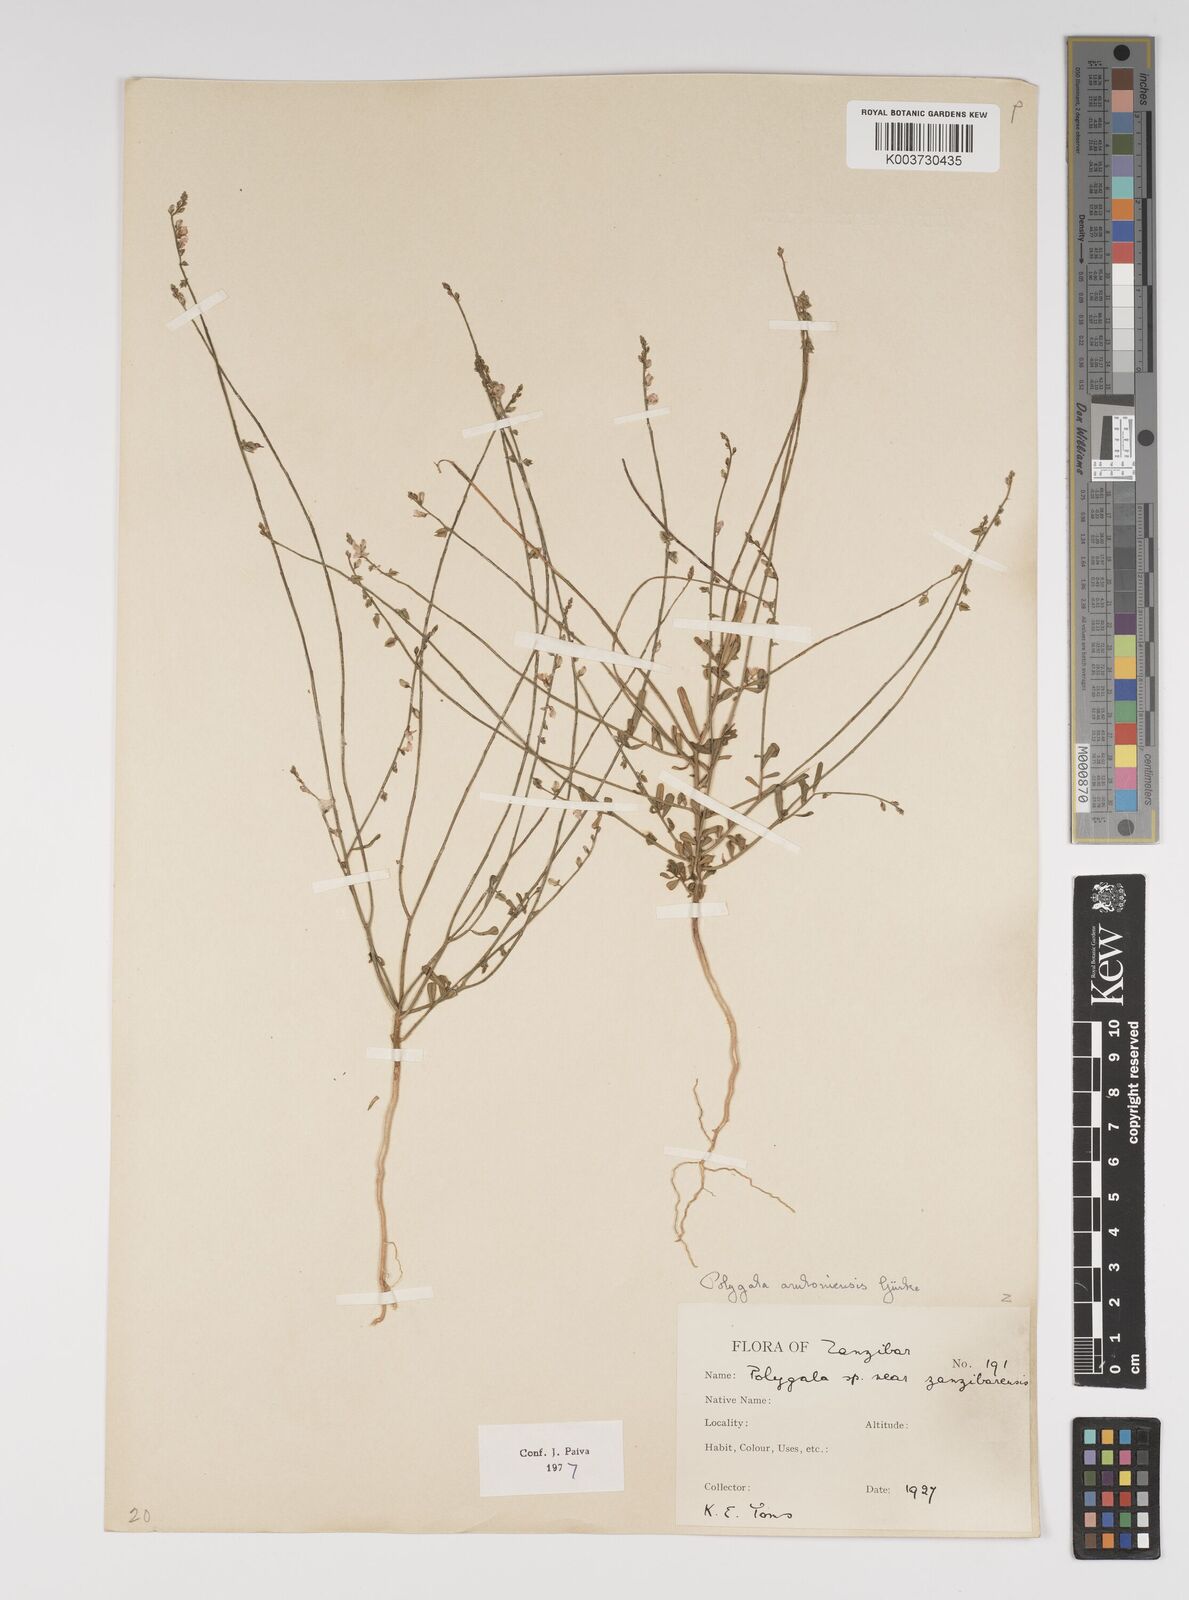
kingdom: Plantae
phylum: Tracheophyta
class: Magnoliopsida
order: Fabales
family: Polygalaceae
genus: Polygala
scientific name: Polygala amboniensis
